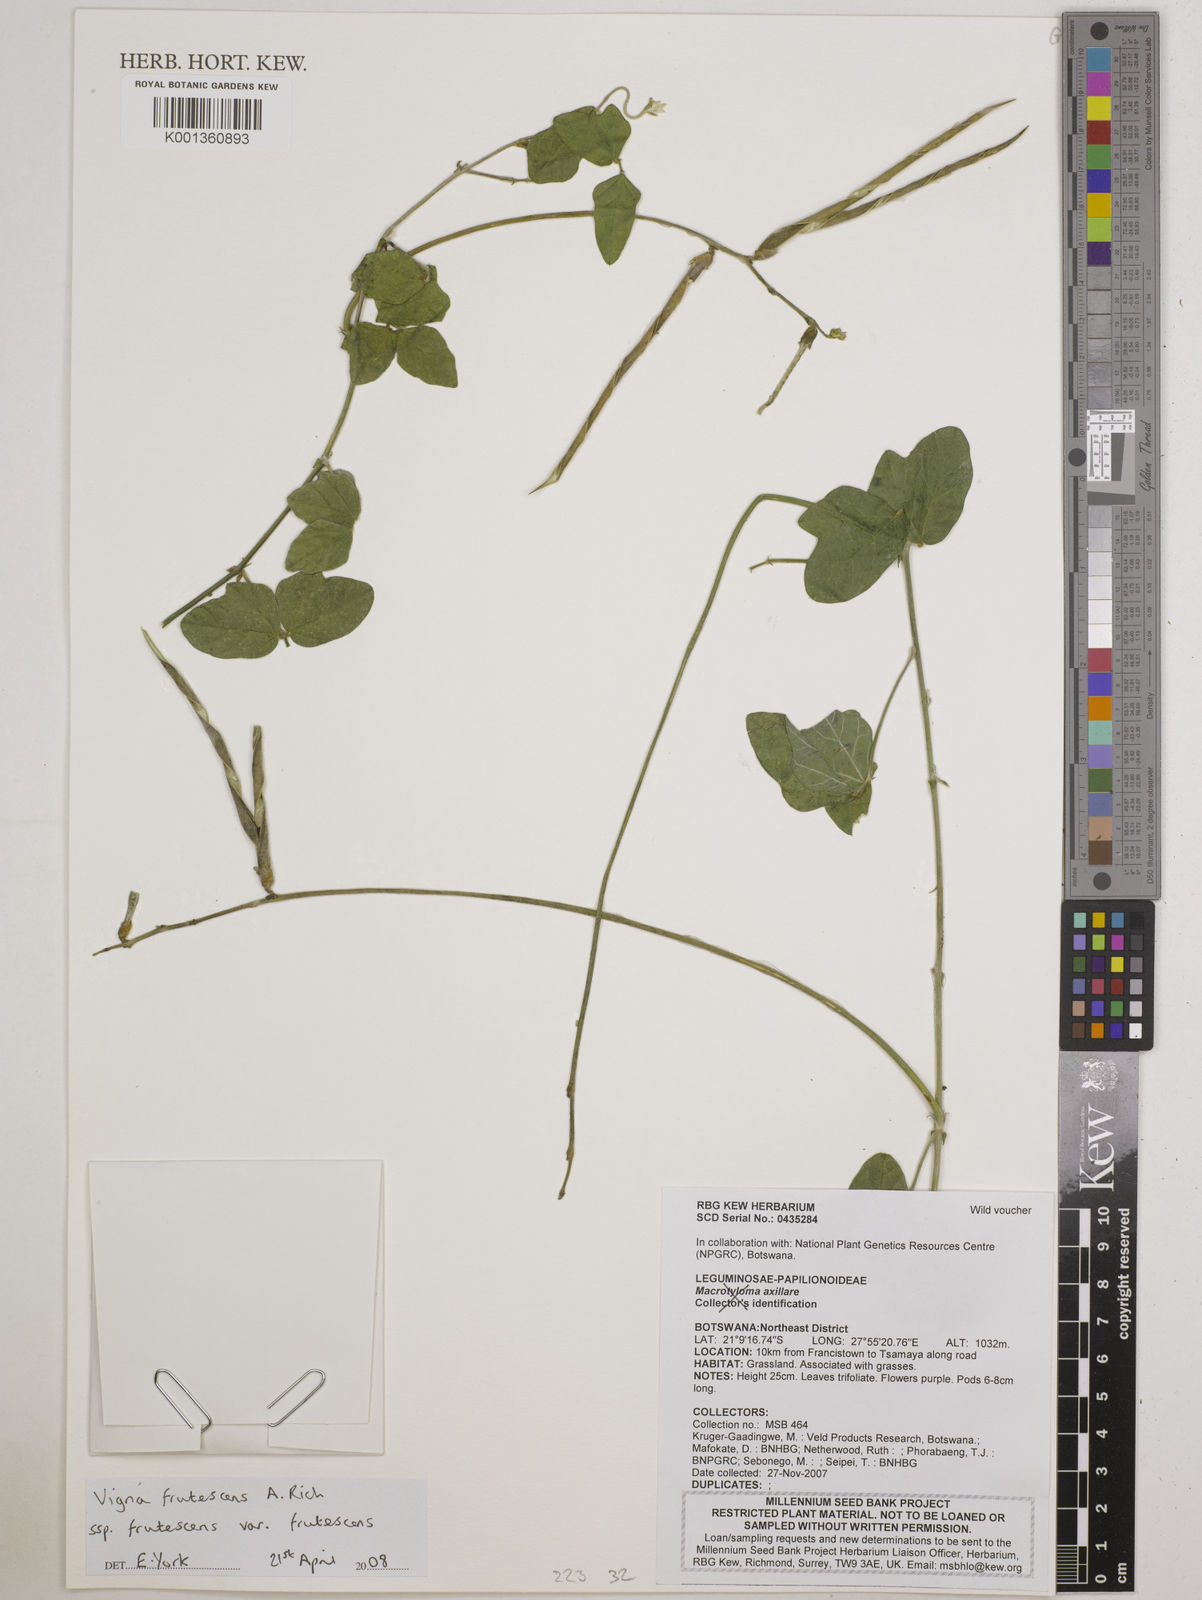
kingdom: Plantae
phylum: Tracheophyta
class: Magnoliopsida
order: Fabales
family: Fabaceae
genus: Vigna
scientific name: Vigna frutescens
